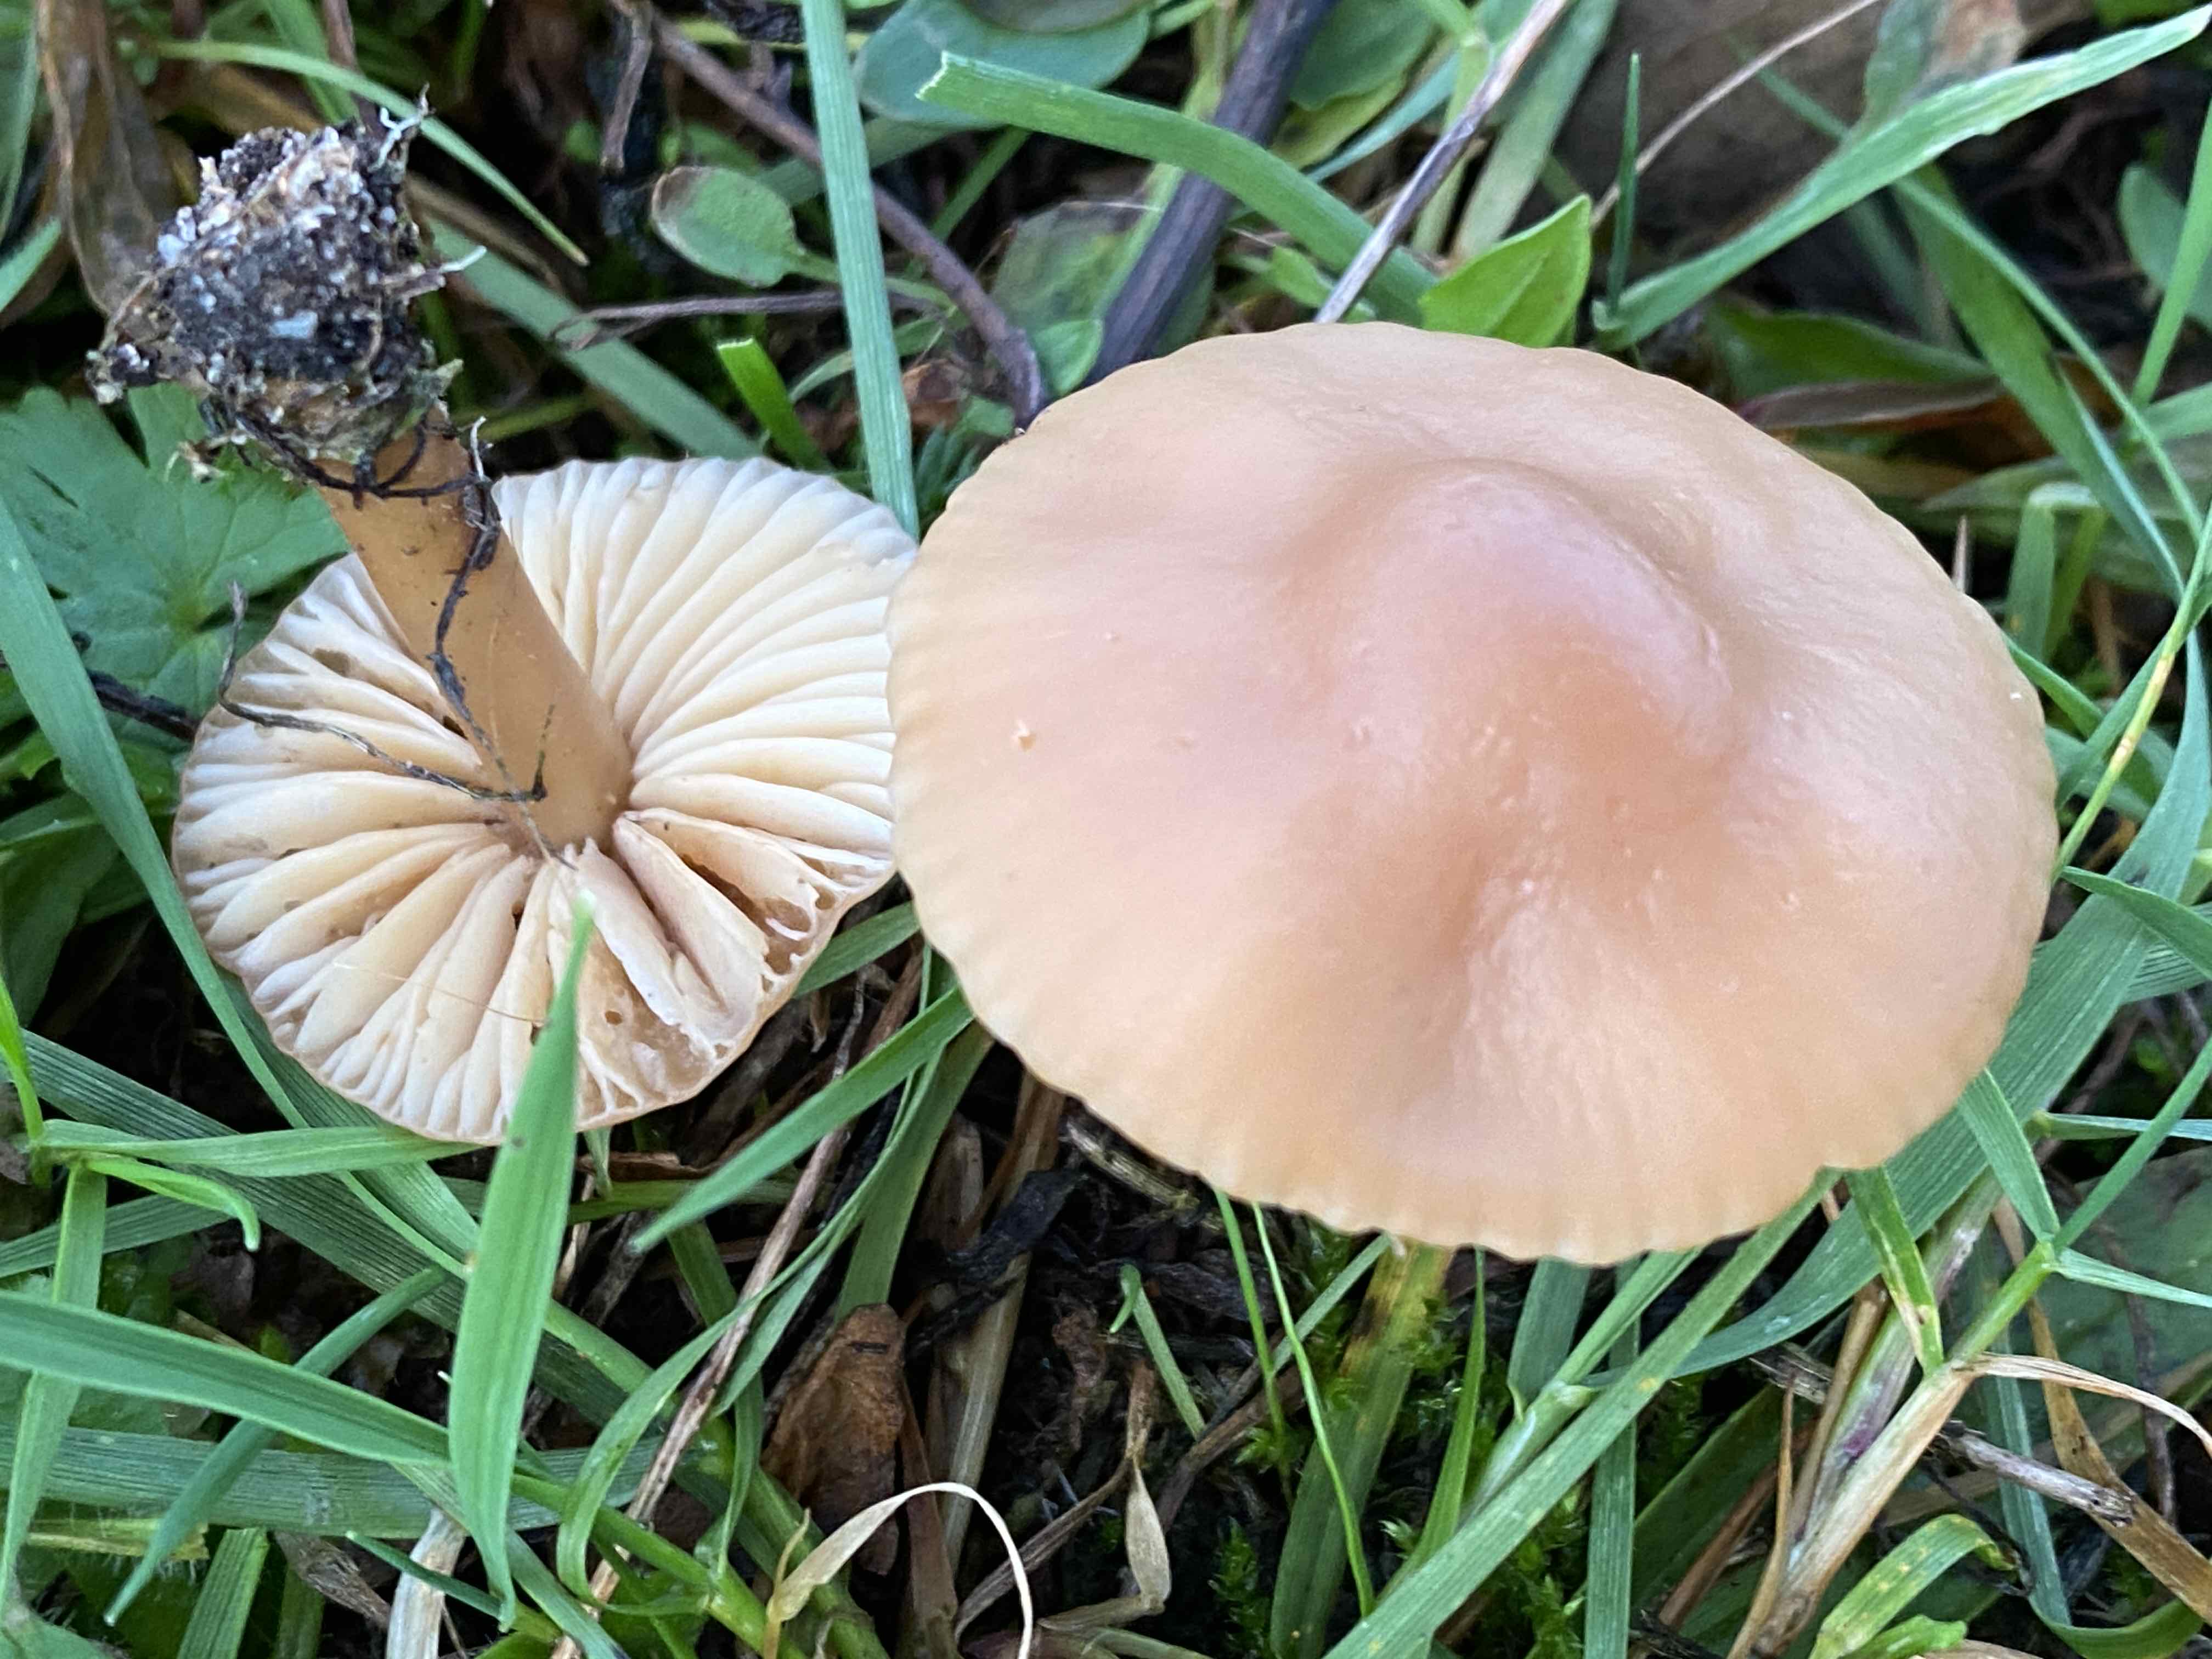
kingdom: Fungi
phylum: Basidiomycota
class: Agaricomycetes
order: Agaricales
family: Marasmiaceae
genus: Marasmius
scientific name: Marasmius oreades
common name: elledans-bruskhat
